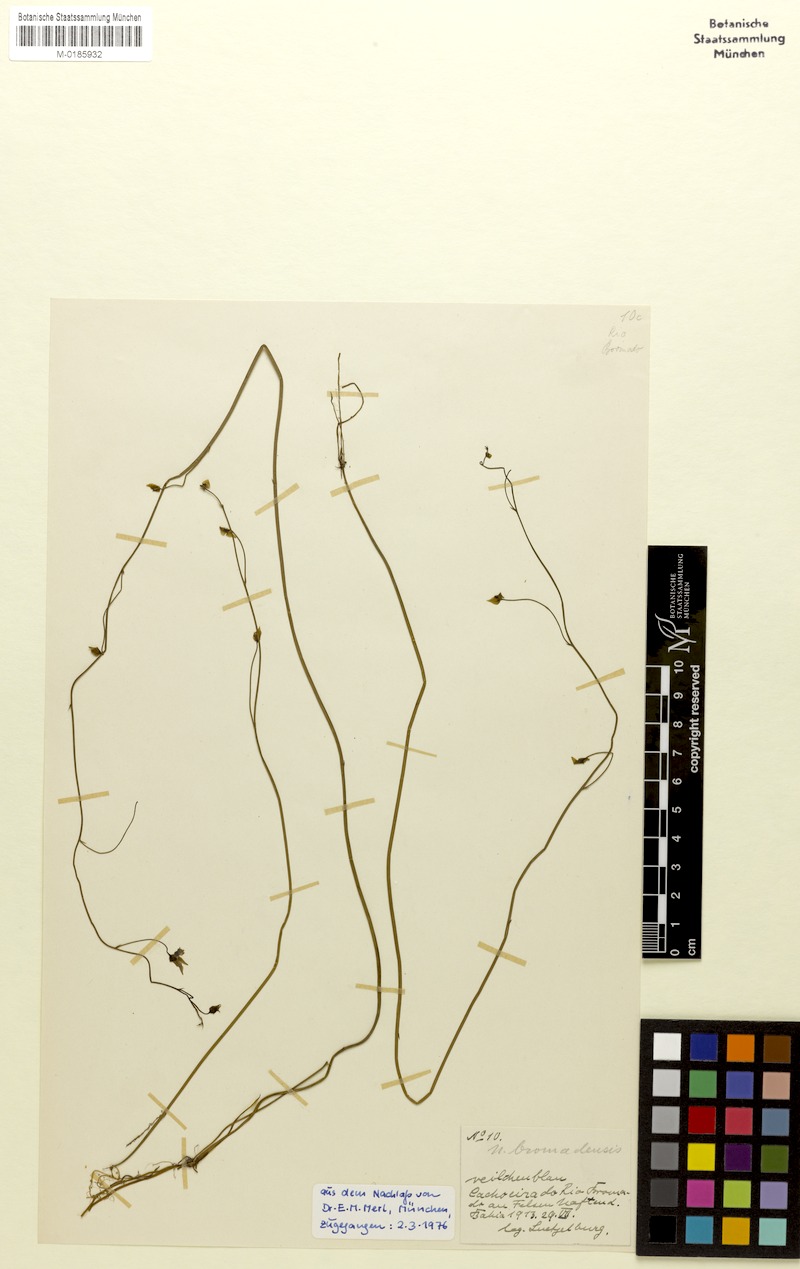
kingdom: Plantae
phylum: Tracheophyta
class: Magnoliopsida
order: Lamiales
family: Lentibulariaceae
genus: Utricularia
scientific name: Utricularia longifolia
